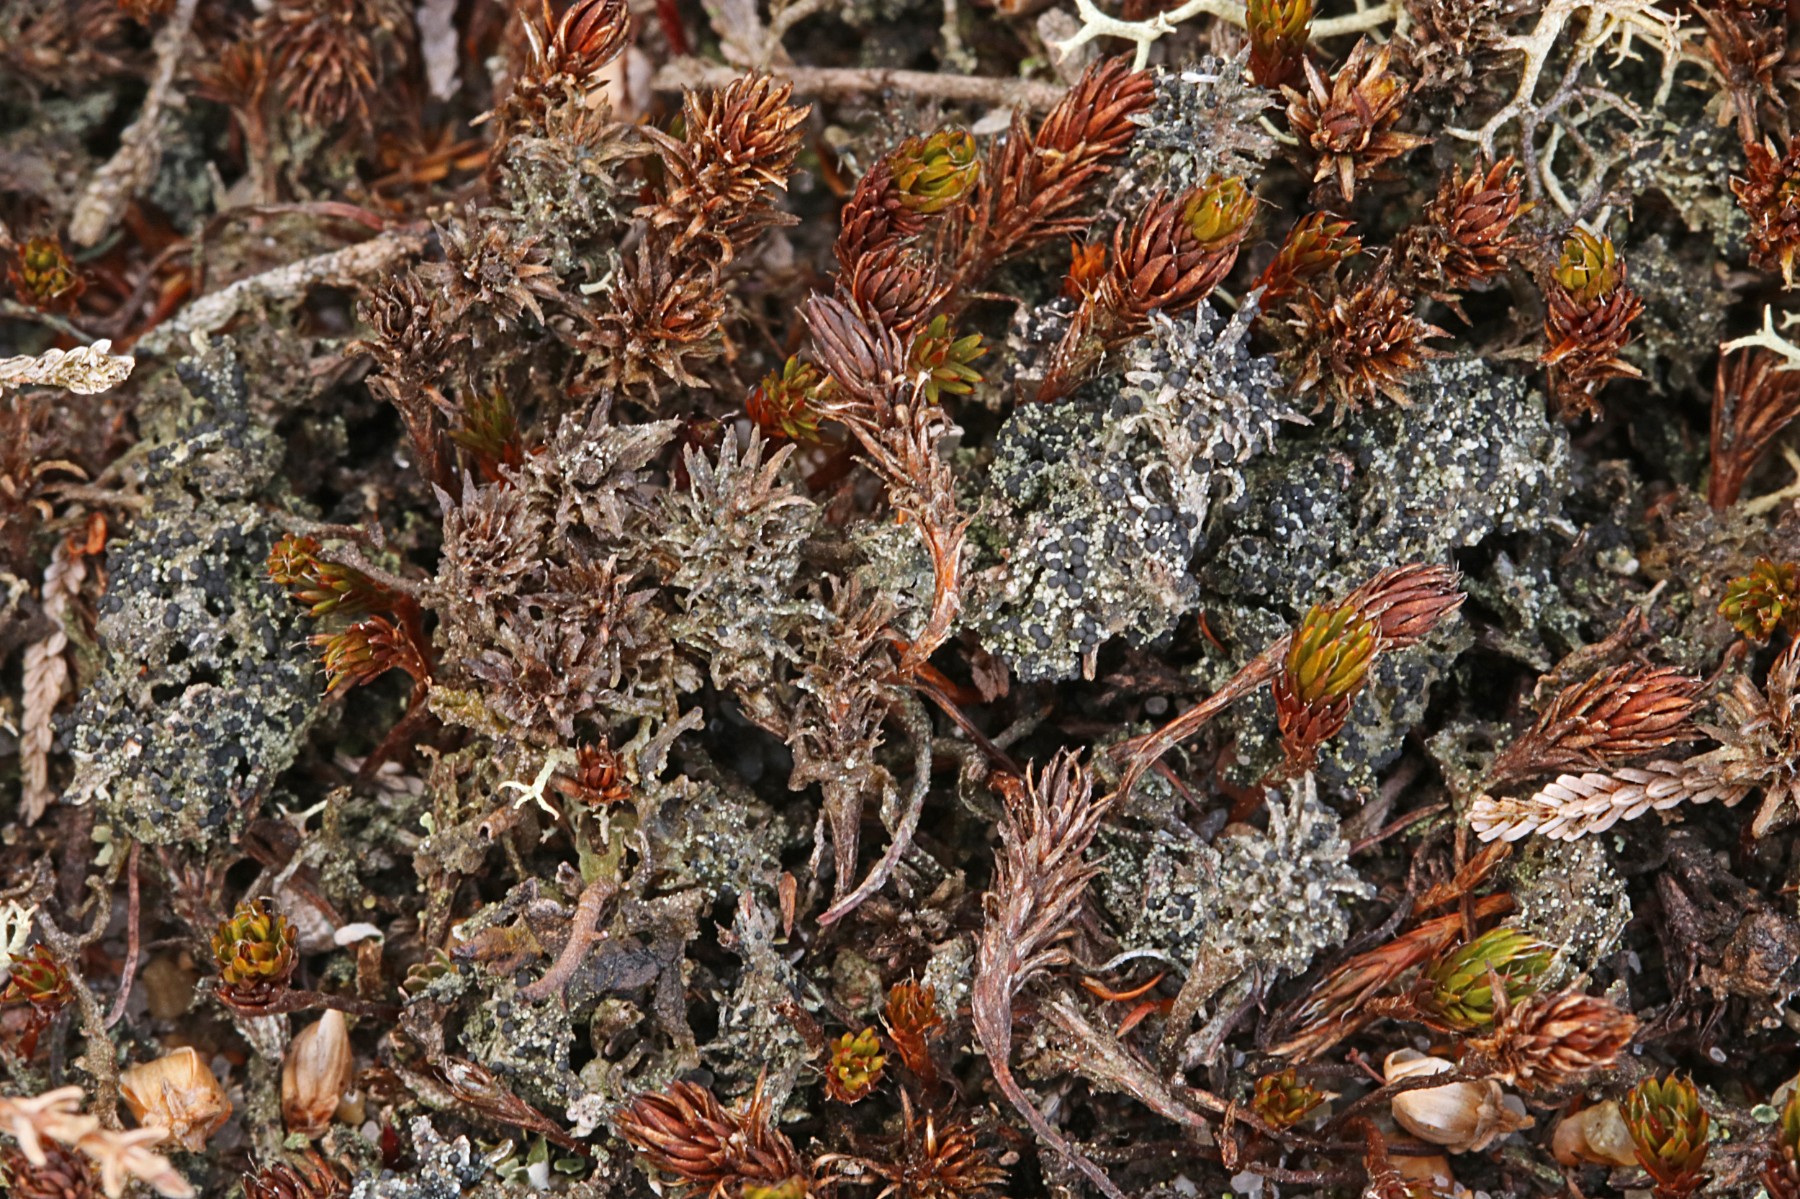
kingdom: Fungi
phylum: Ascomycota
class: Lecanoromycetes
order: Lecanorales
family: Byssolomataceae
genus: Micarea
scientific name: Micarea lignaria
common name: tørve-knaplav
